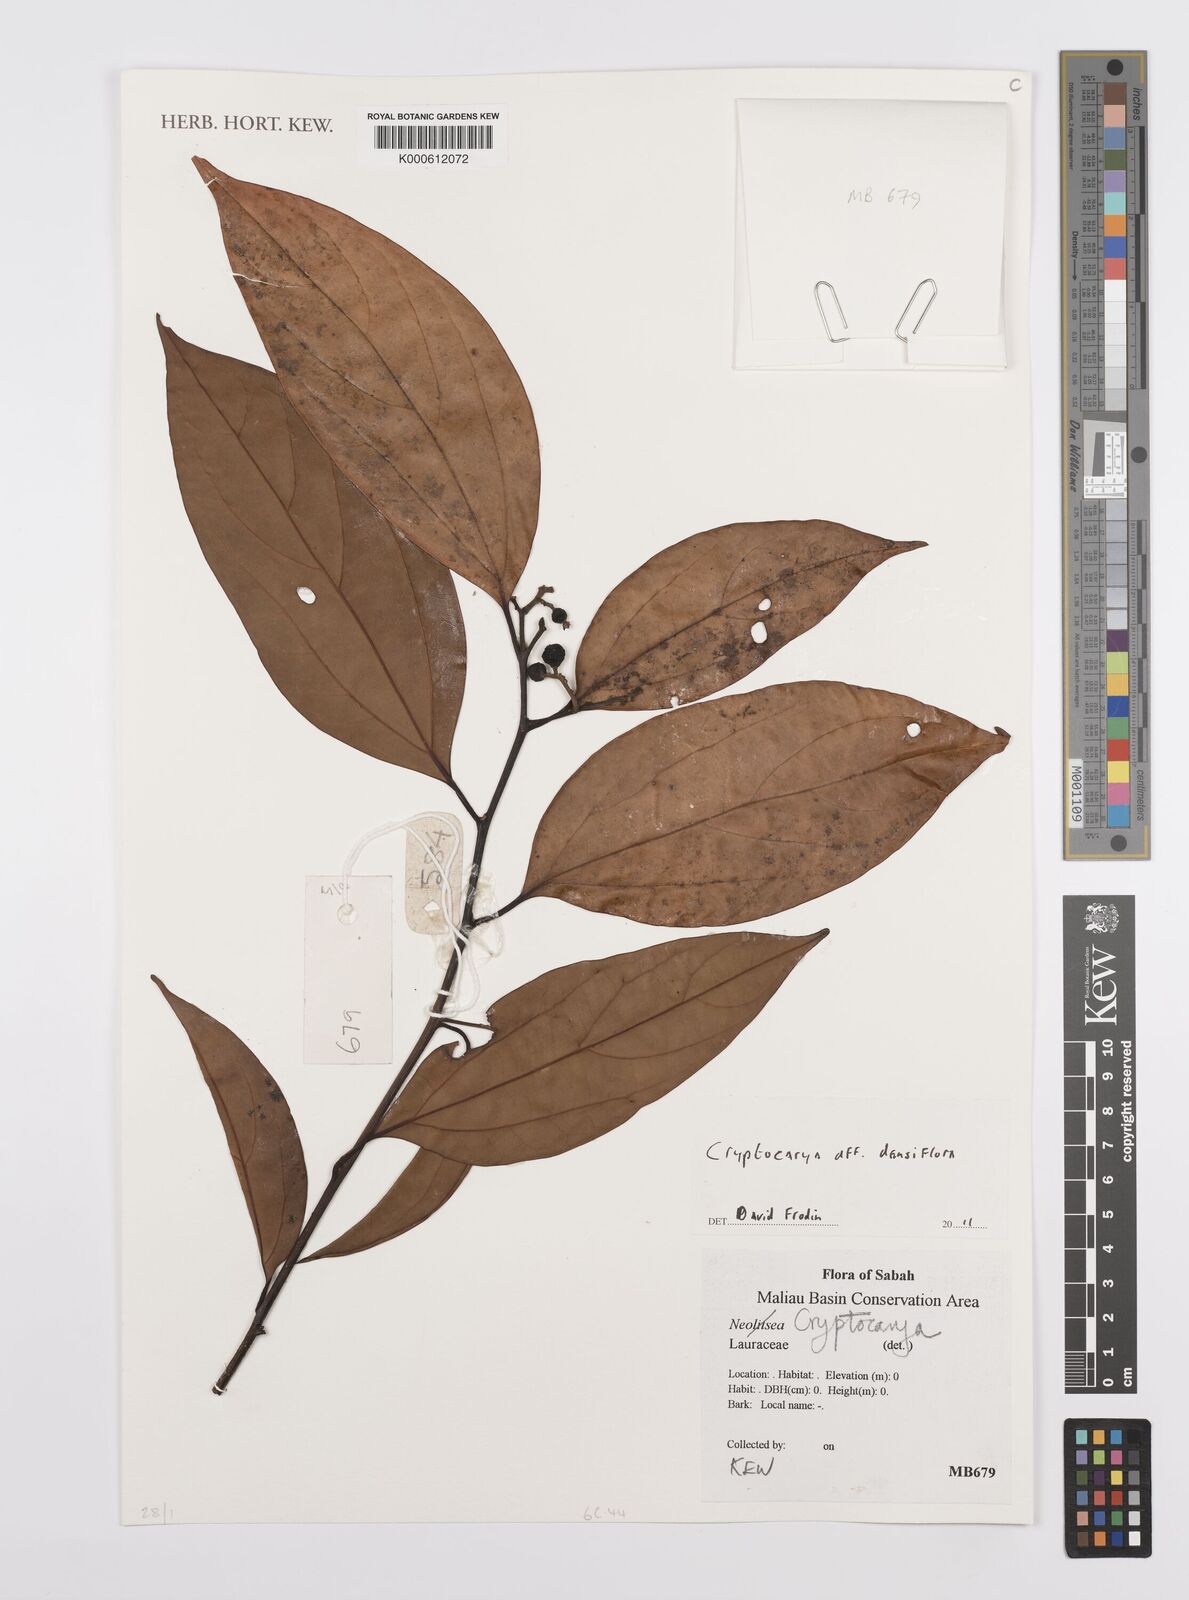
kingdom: Plantae
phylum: Tracheophyta
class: Magnoliopsida
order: Laurales
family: Lauraceae
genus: Cryptocarya
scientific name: Cryptocarya densiflora
